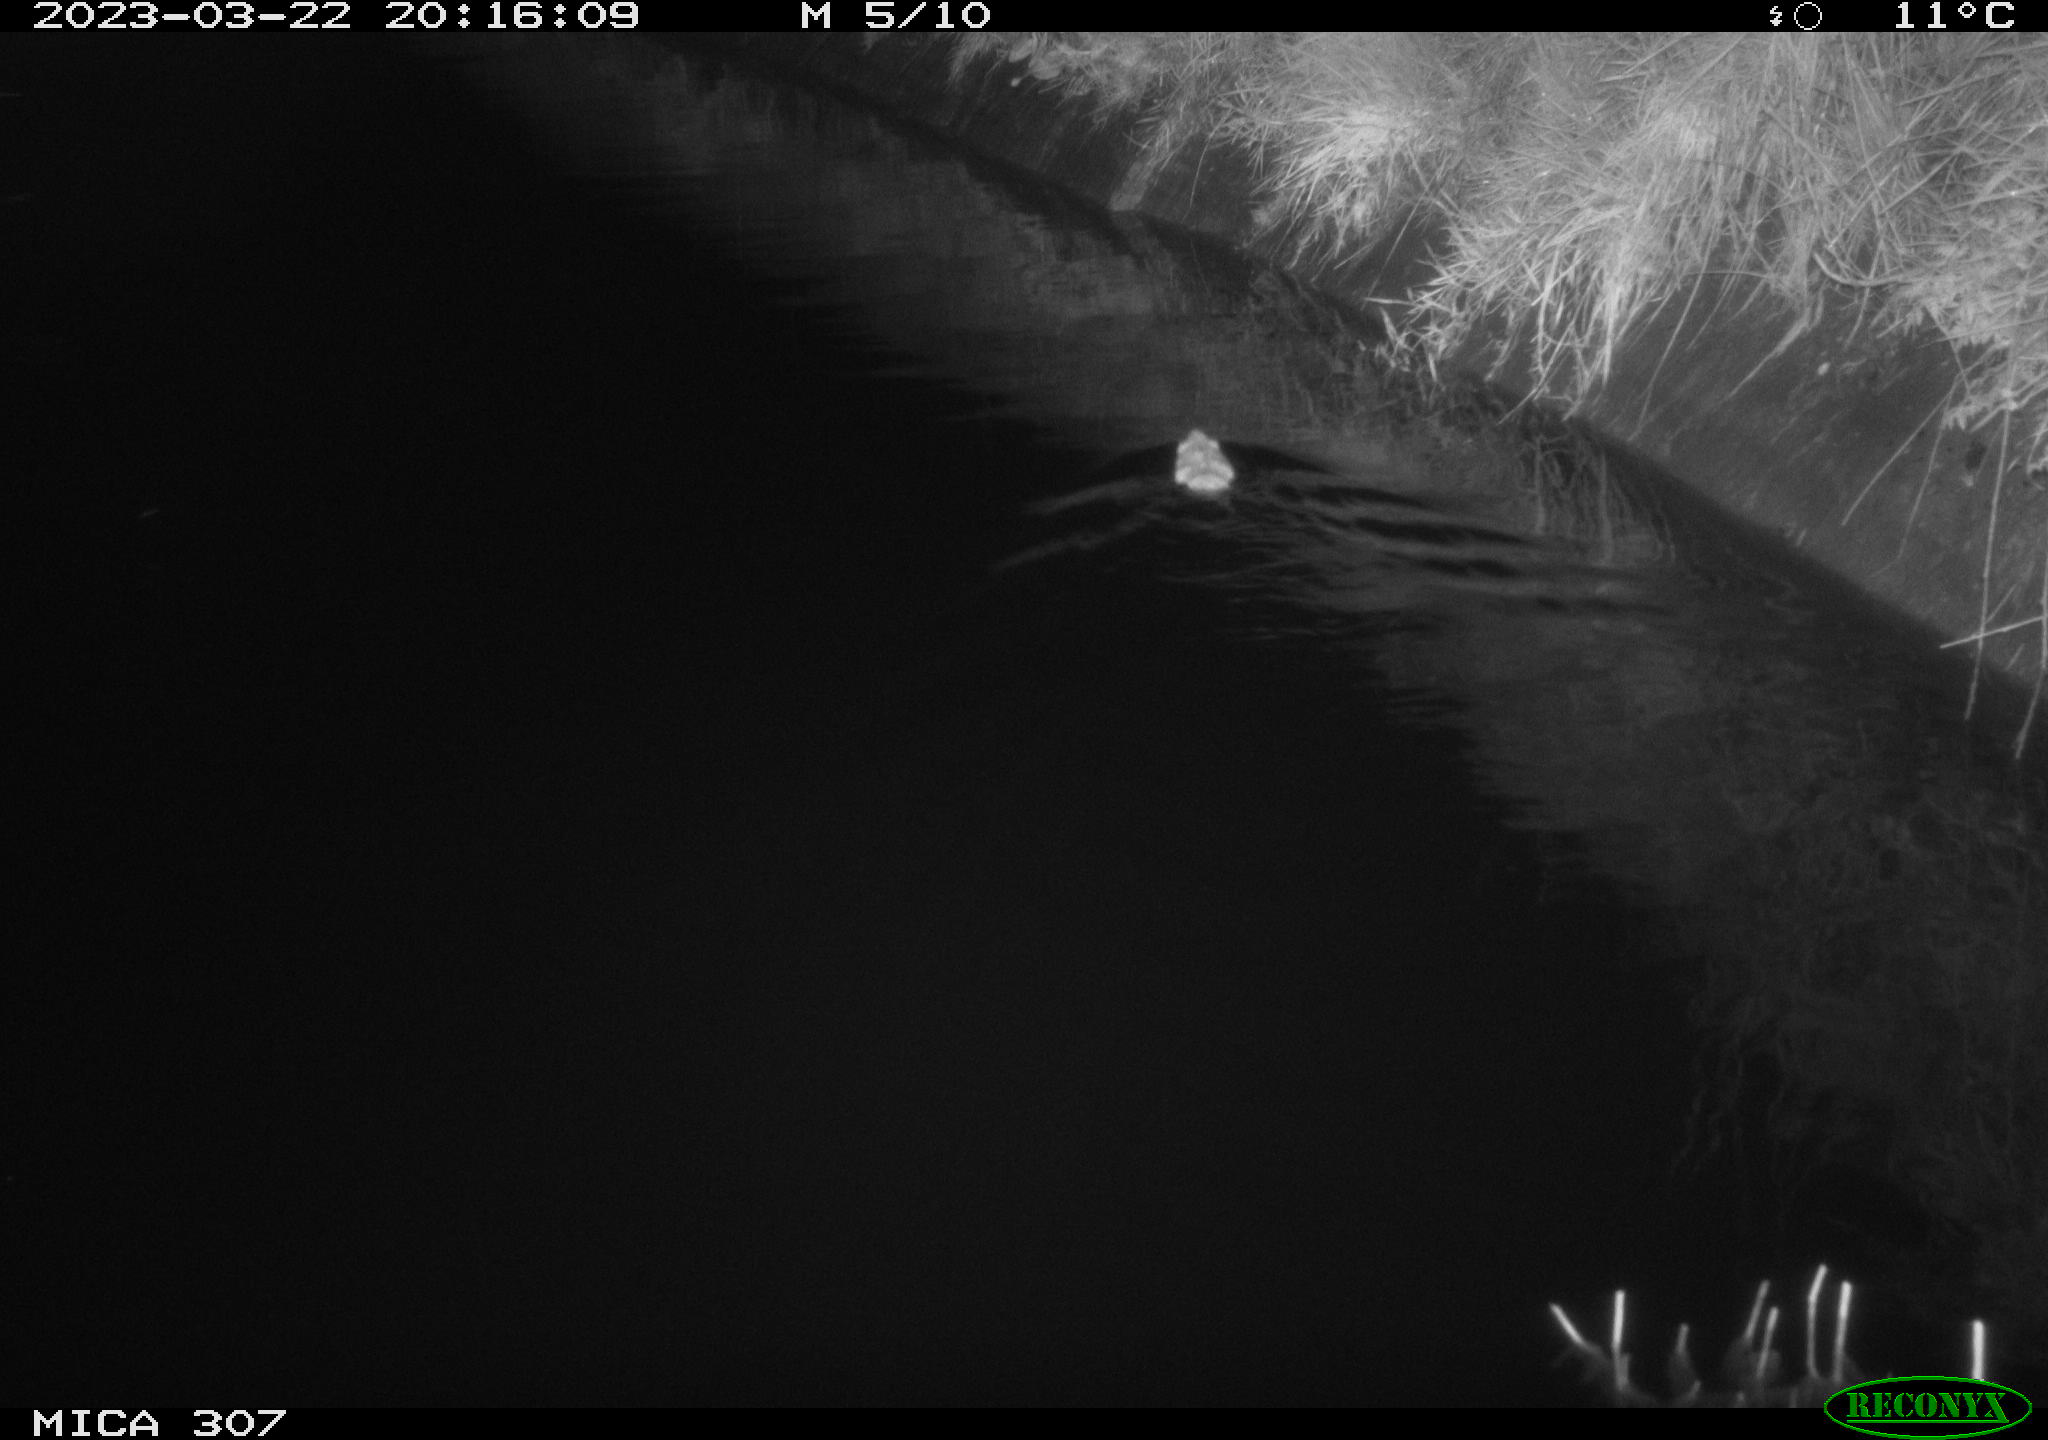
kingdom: Animalia
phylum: Chordata
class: Mammalia
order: Rodentia
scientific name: Rodentia
